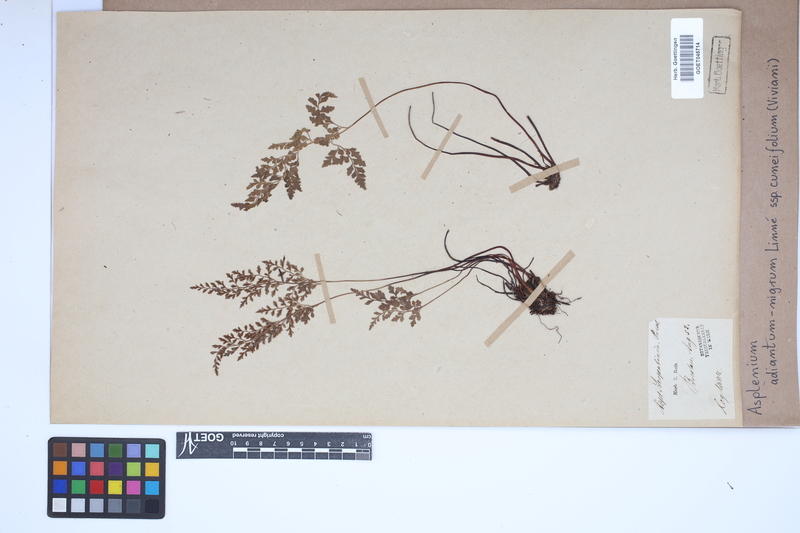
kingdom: Plantae
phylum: Tracheophyta
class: Polypodiopsida
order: Polypodiales
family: Aspleniaceae
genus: Asplenium
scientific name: Asplenium cuneifolium
